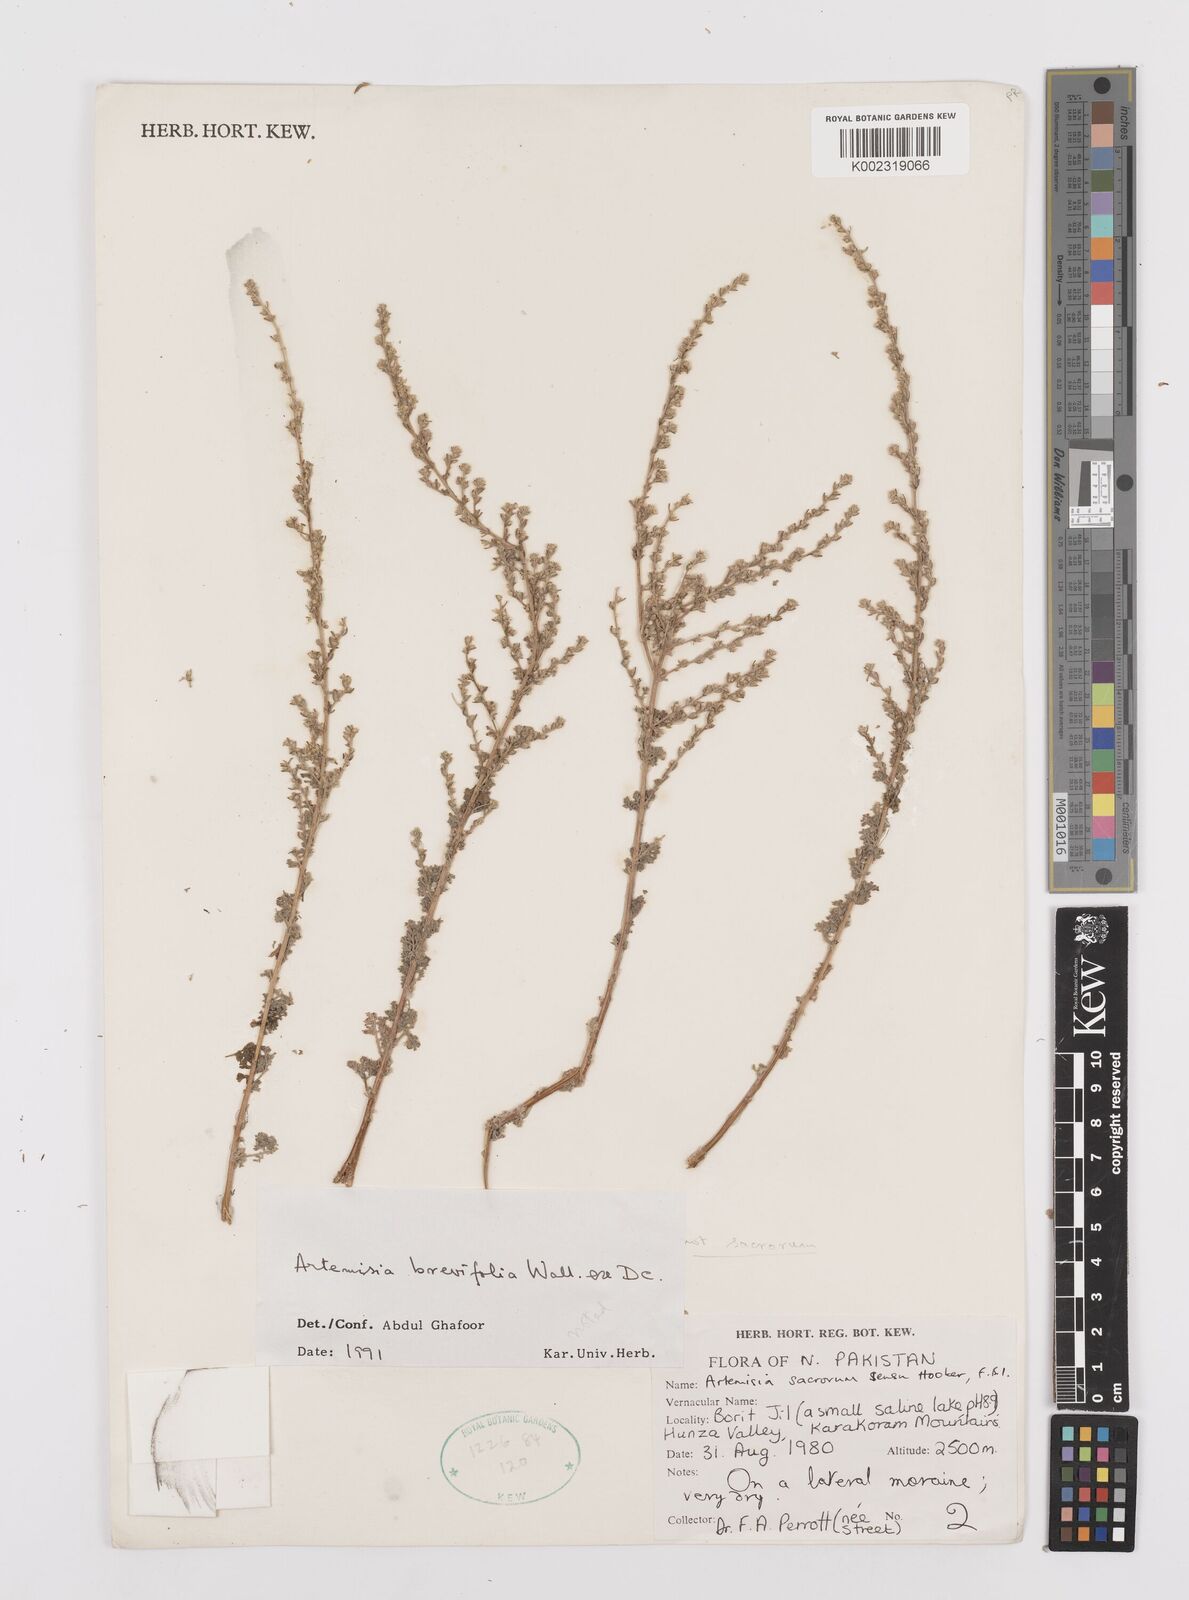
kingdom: Plantae
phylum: Tracheophyta
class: Magnoliopsida
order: Asterales
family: Asteraceae
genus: Artemisia
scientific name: Artemisia brevifolia
